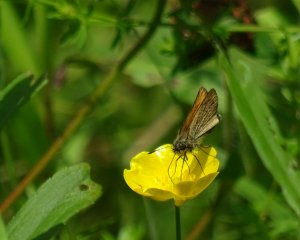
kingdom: Animalia
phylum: Arthropoda
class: Insecta
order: Lepidoptera
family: Hesperiidae
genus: Thymelicus
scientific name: Thymelicus lineola
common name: European Skipper
